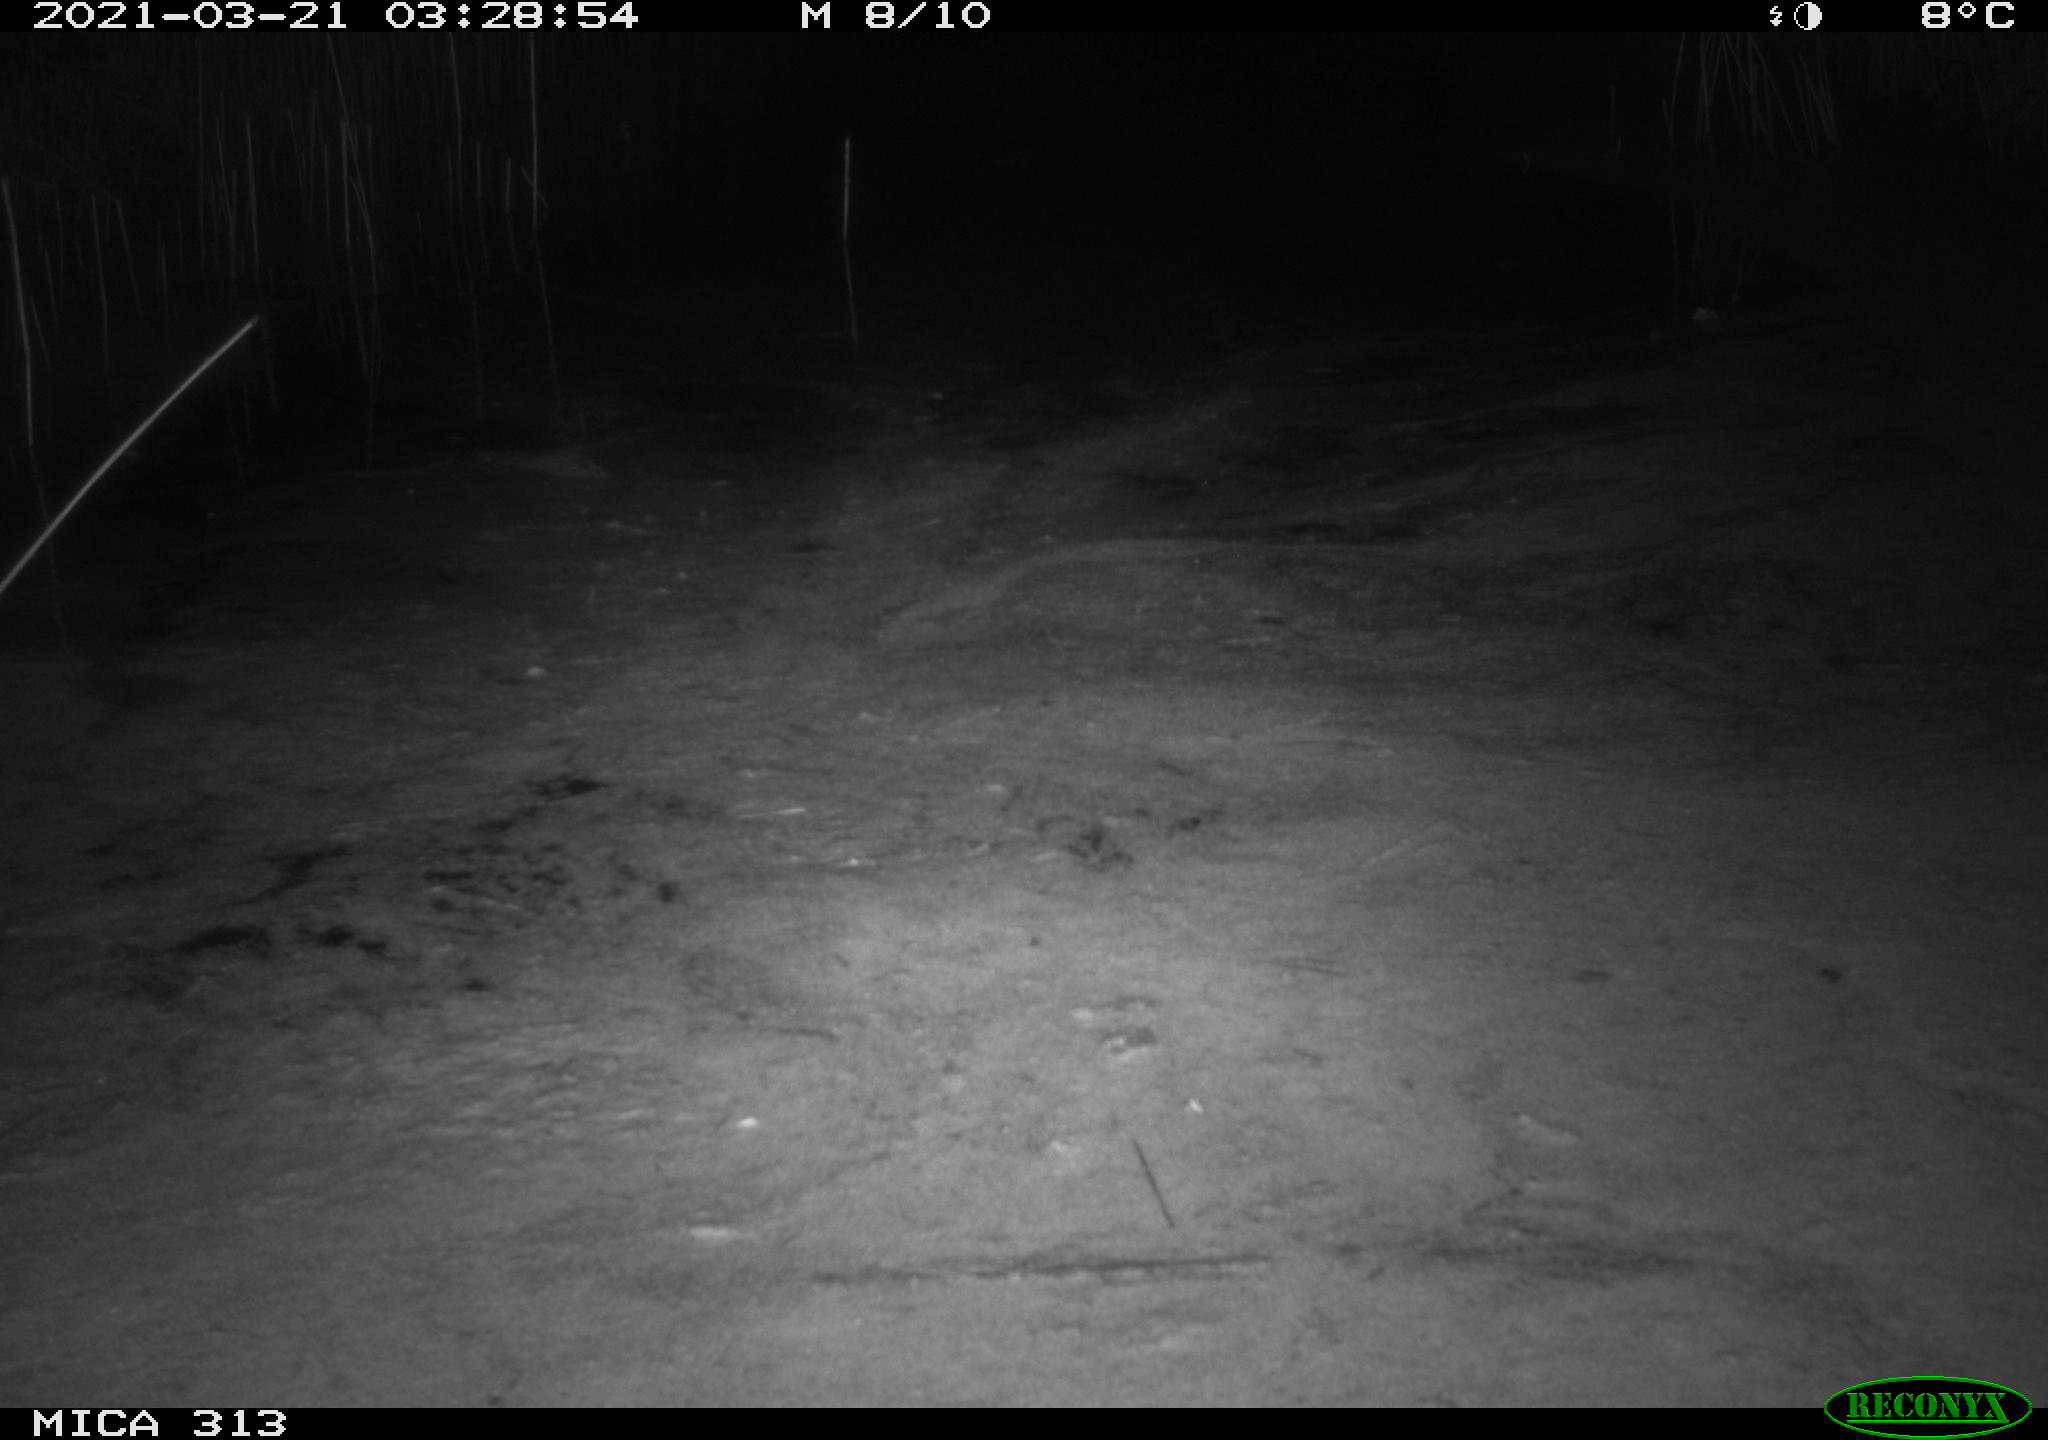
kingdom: Animalia
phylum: Chordata
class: Aves
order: Anseriformes
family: Anatidae
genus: Anas
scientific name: Anas platyrhynchos
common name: Mallard
